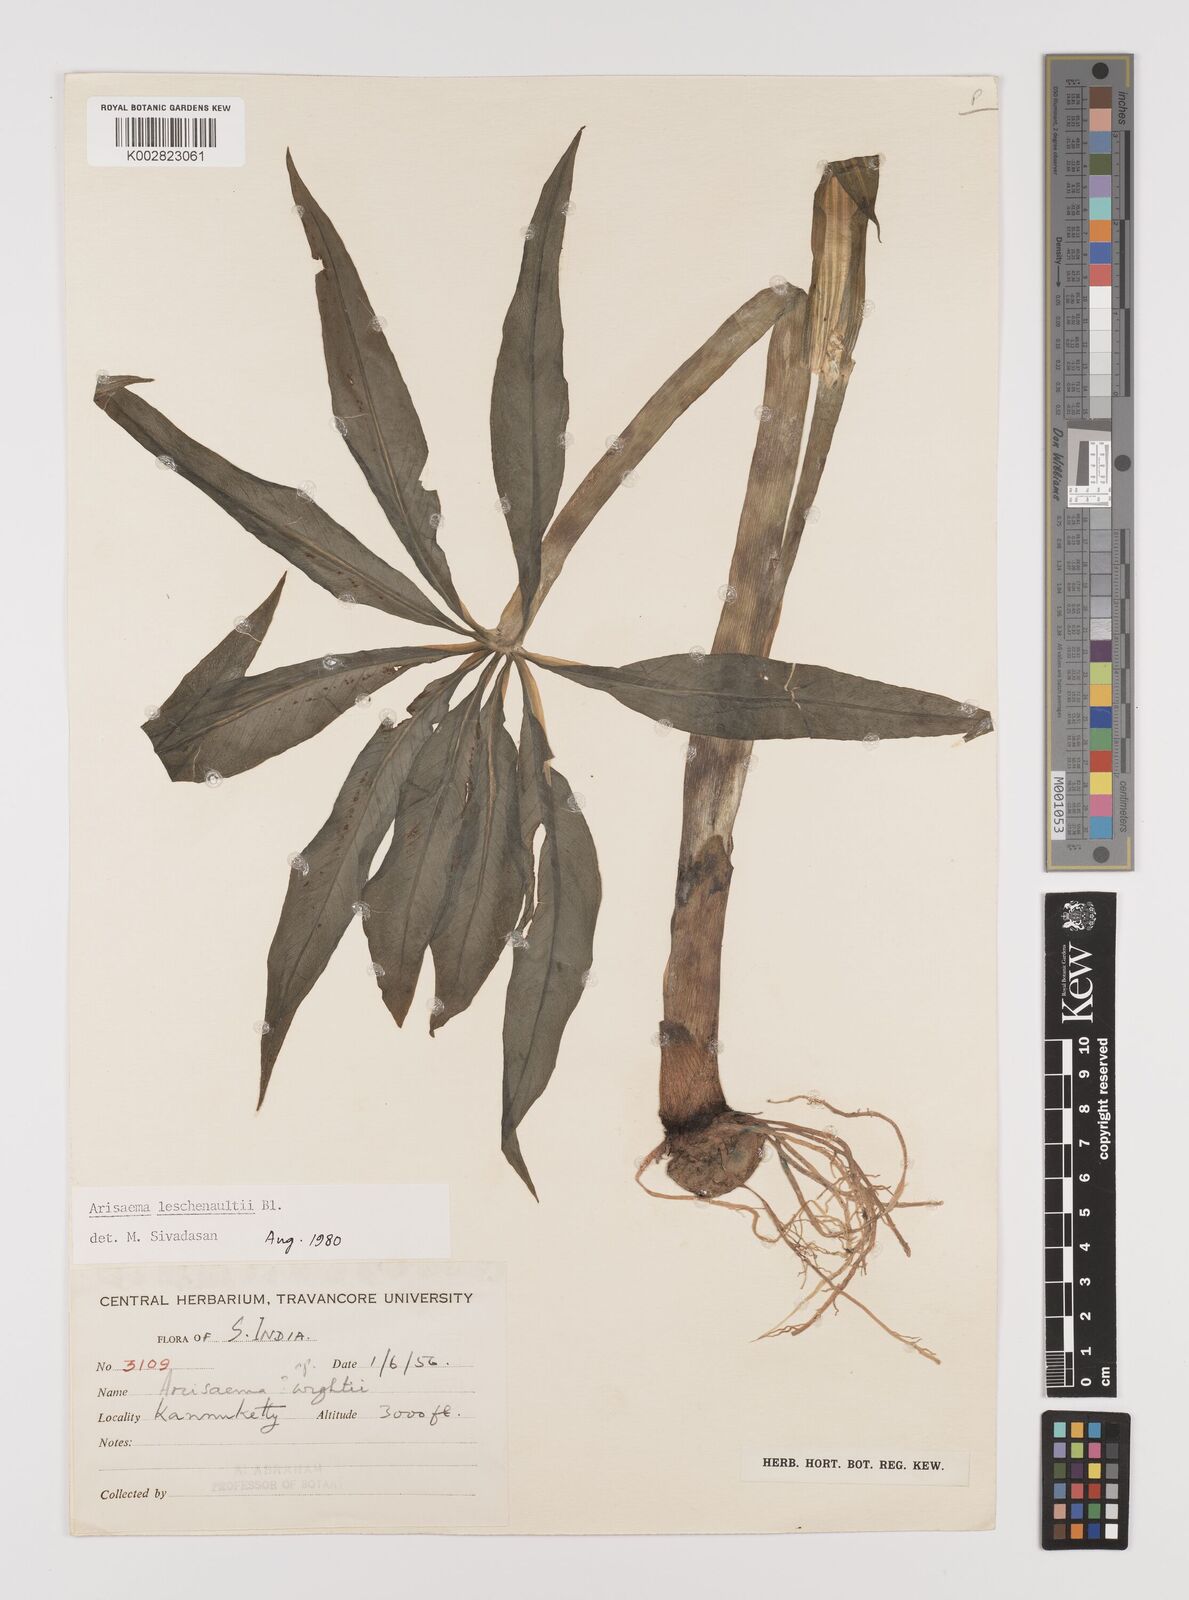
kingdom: Plantae
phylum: Tracheophyta
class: Liliopsida
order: Alismatales
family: Araceae
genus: Arisaema
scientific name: Arisaema leschenaultii
